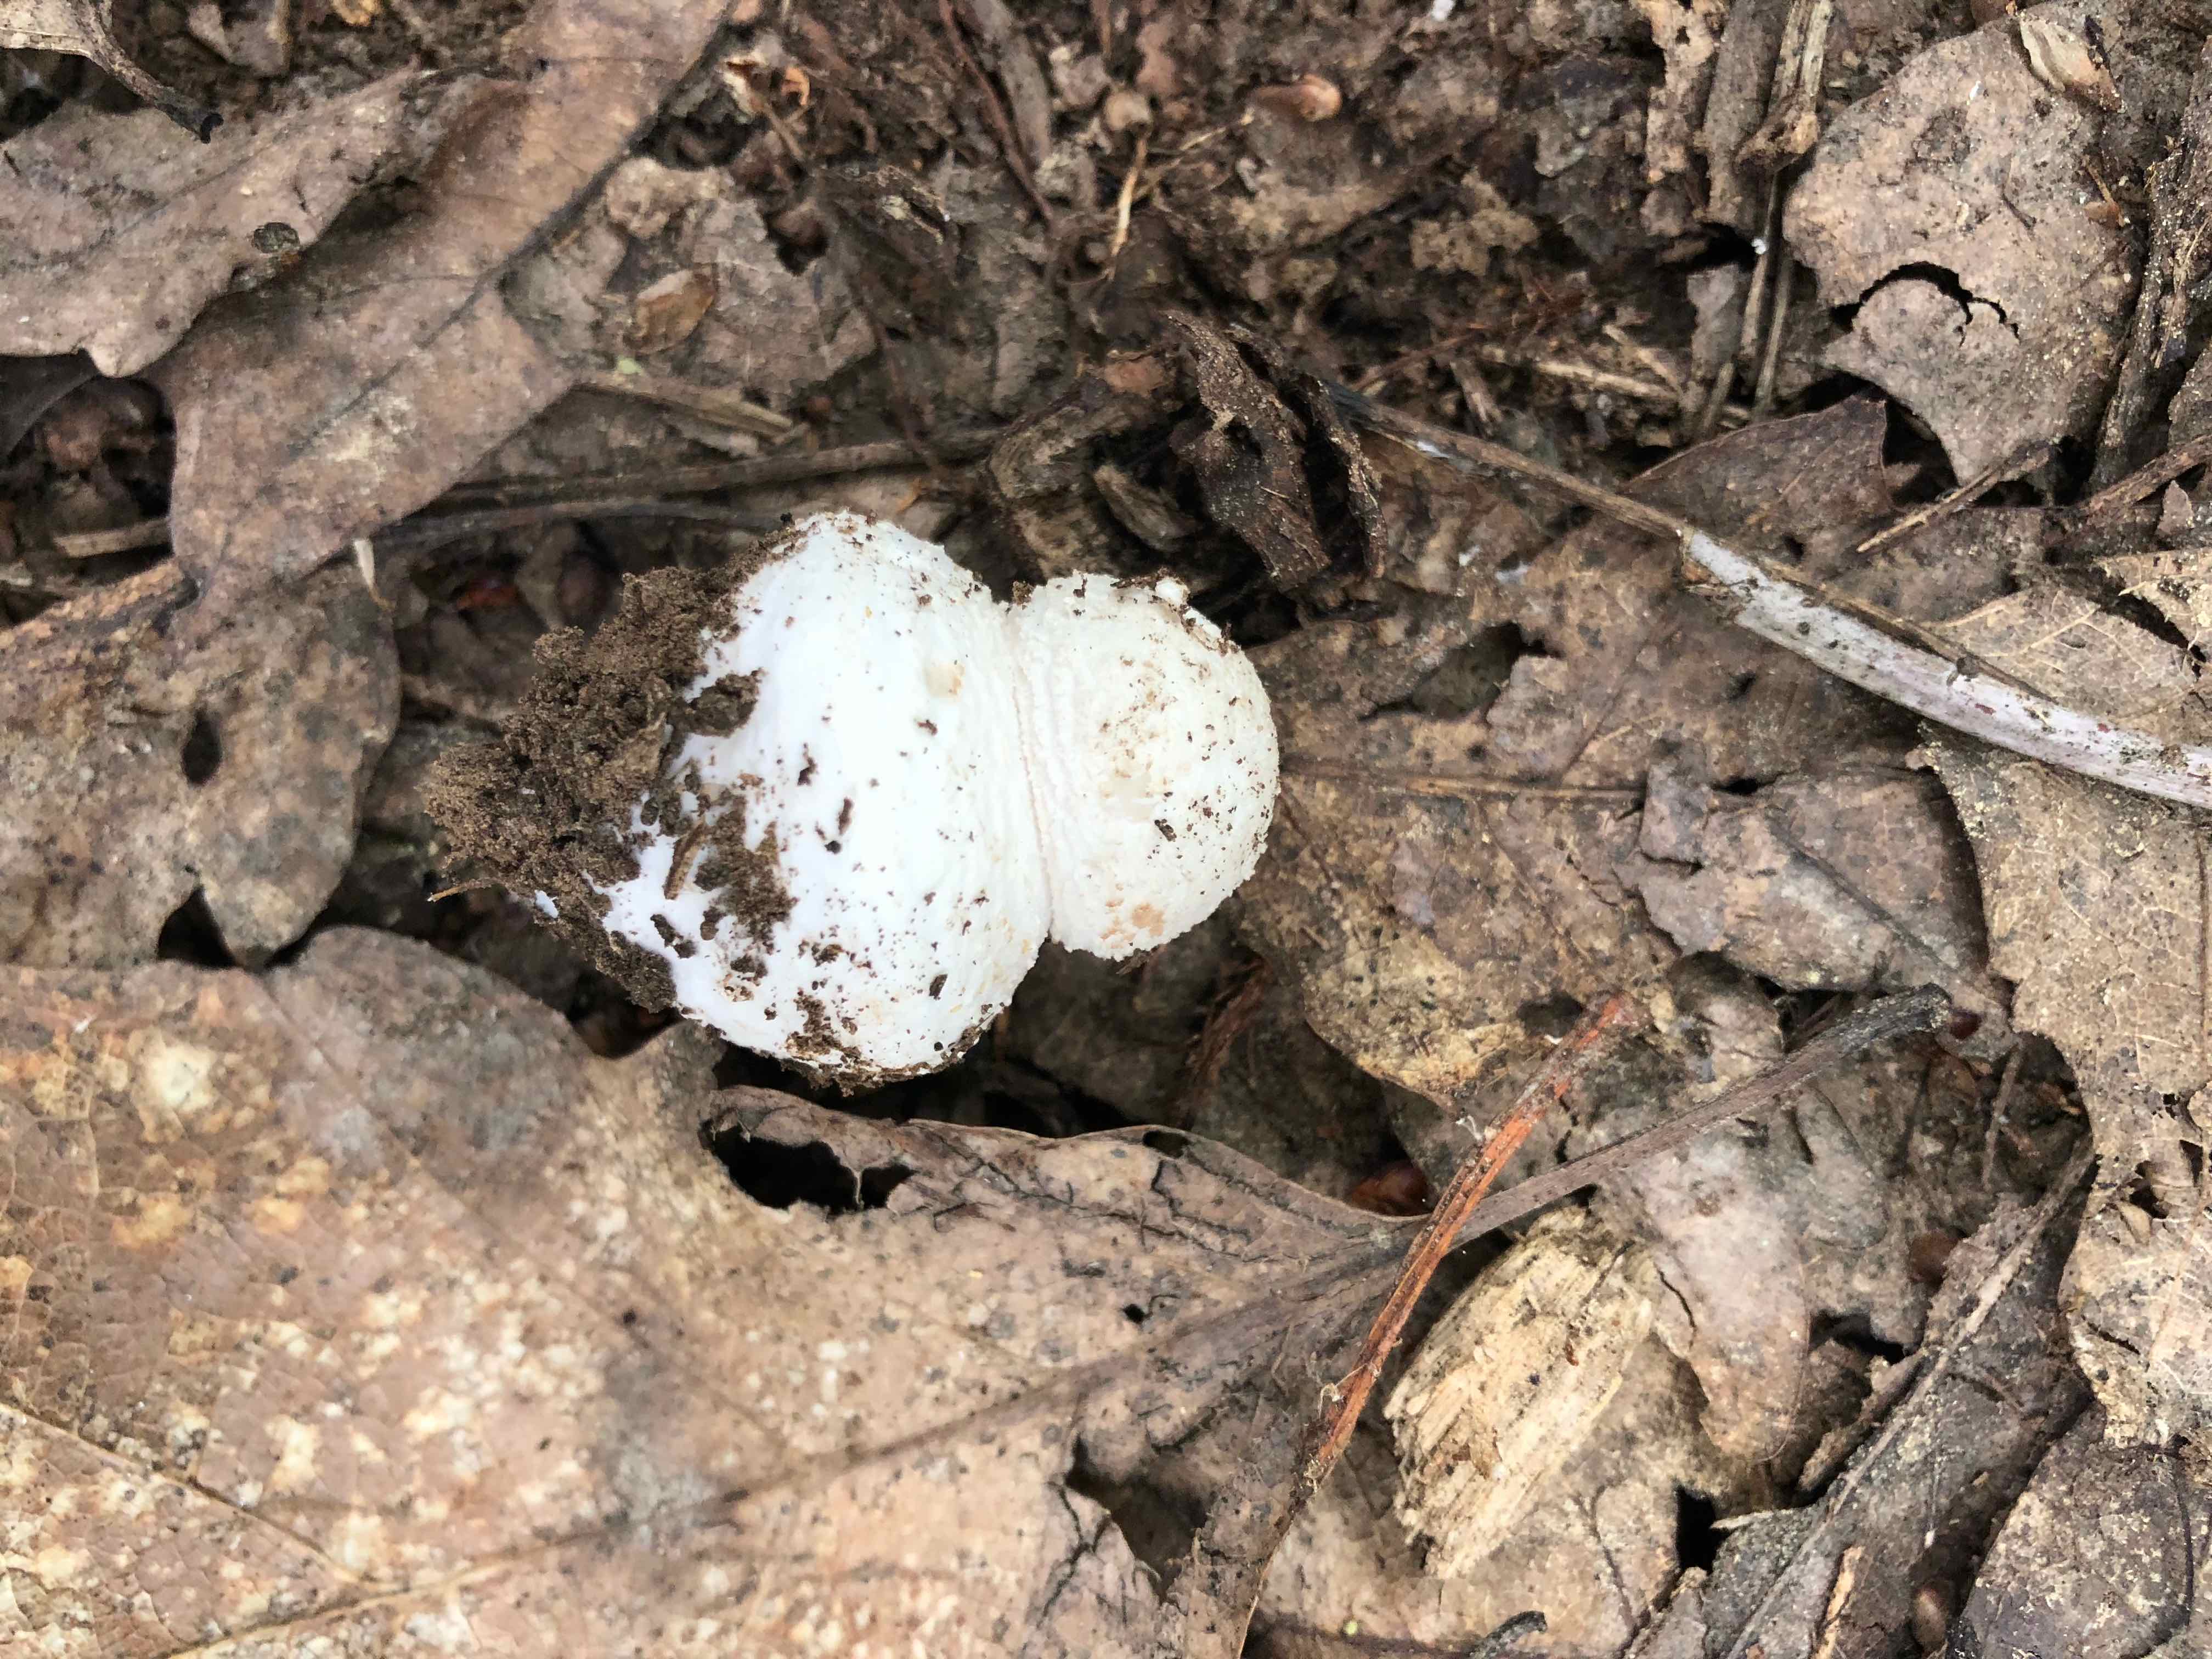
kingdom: Fungi
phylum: Basidiomycota
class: Agaricomycetes
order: Agaricales
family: Amanitaceae
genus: Amanita
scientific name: Amanita
